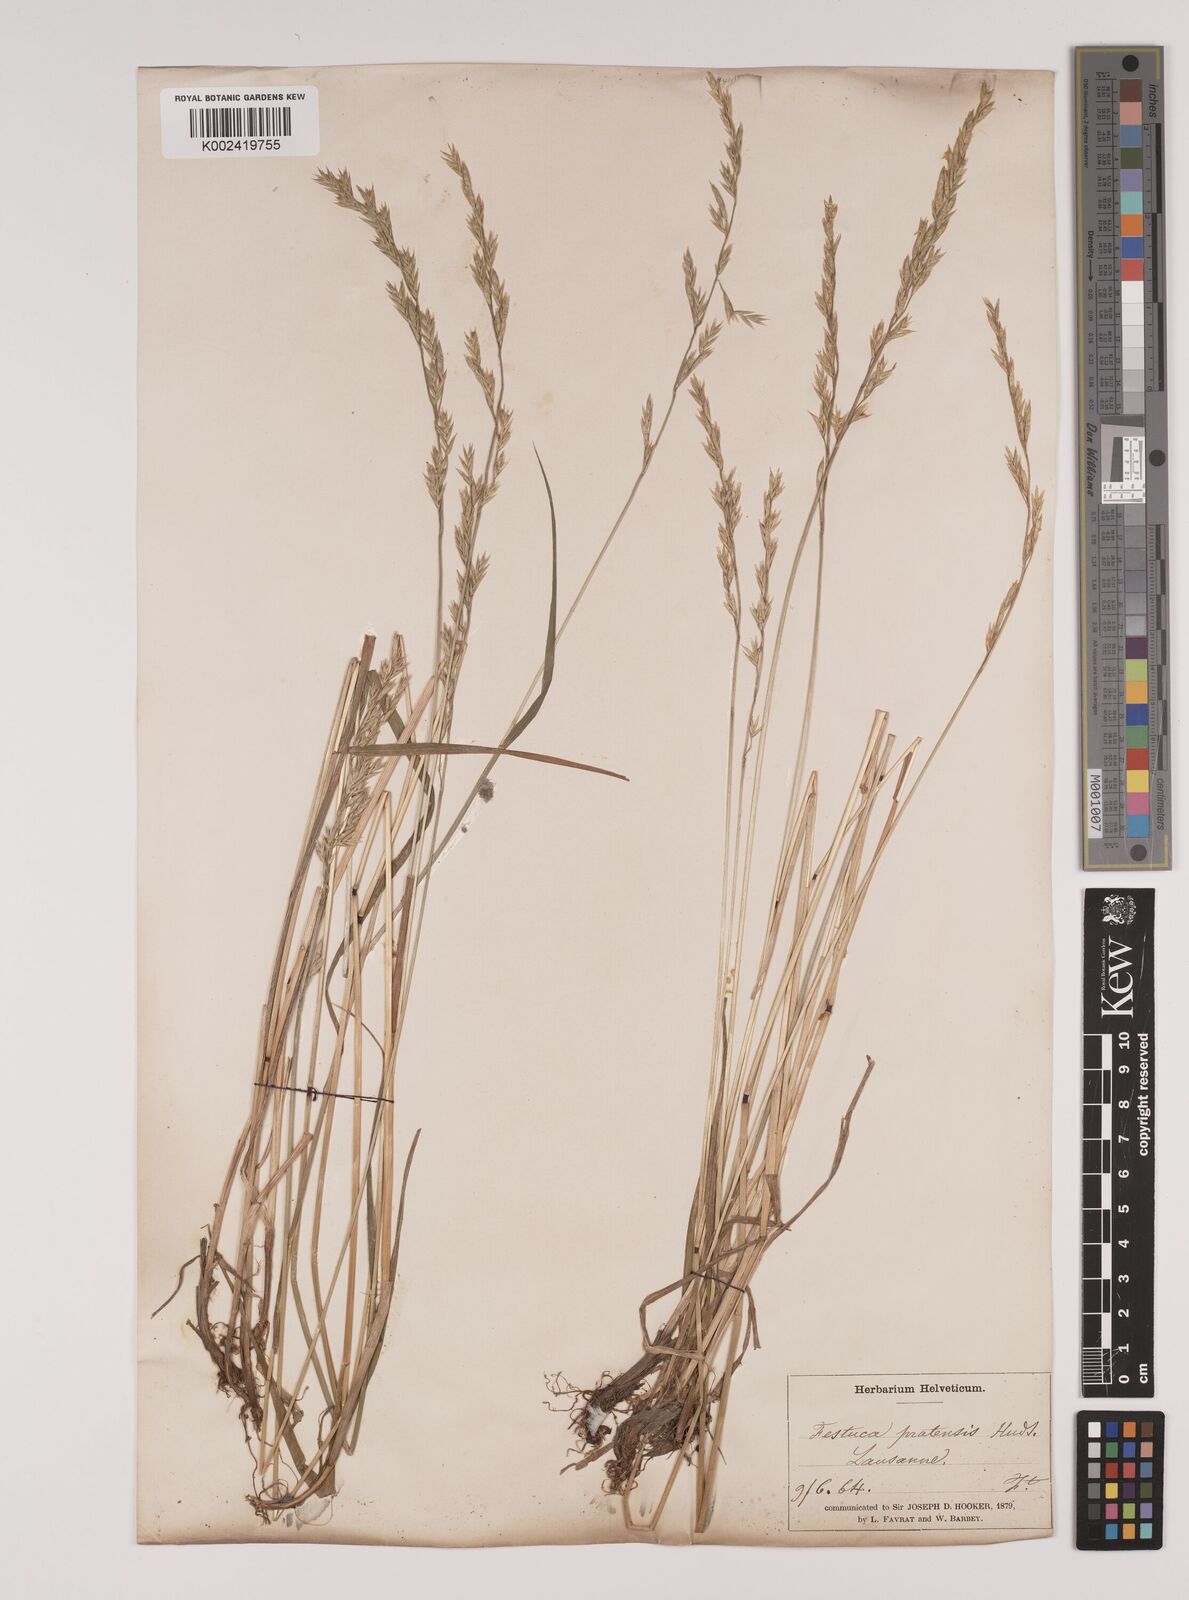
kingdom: Plantae
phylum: Tracheophyta
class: Liliopsida
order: Poales
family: Poaceae
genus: Lolium
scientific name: Lolium pratense
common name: Dover grass
